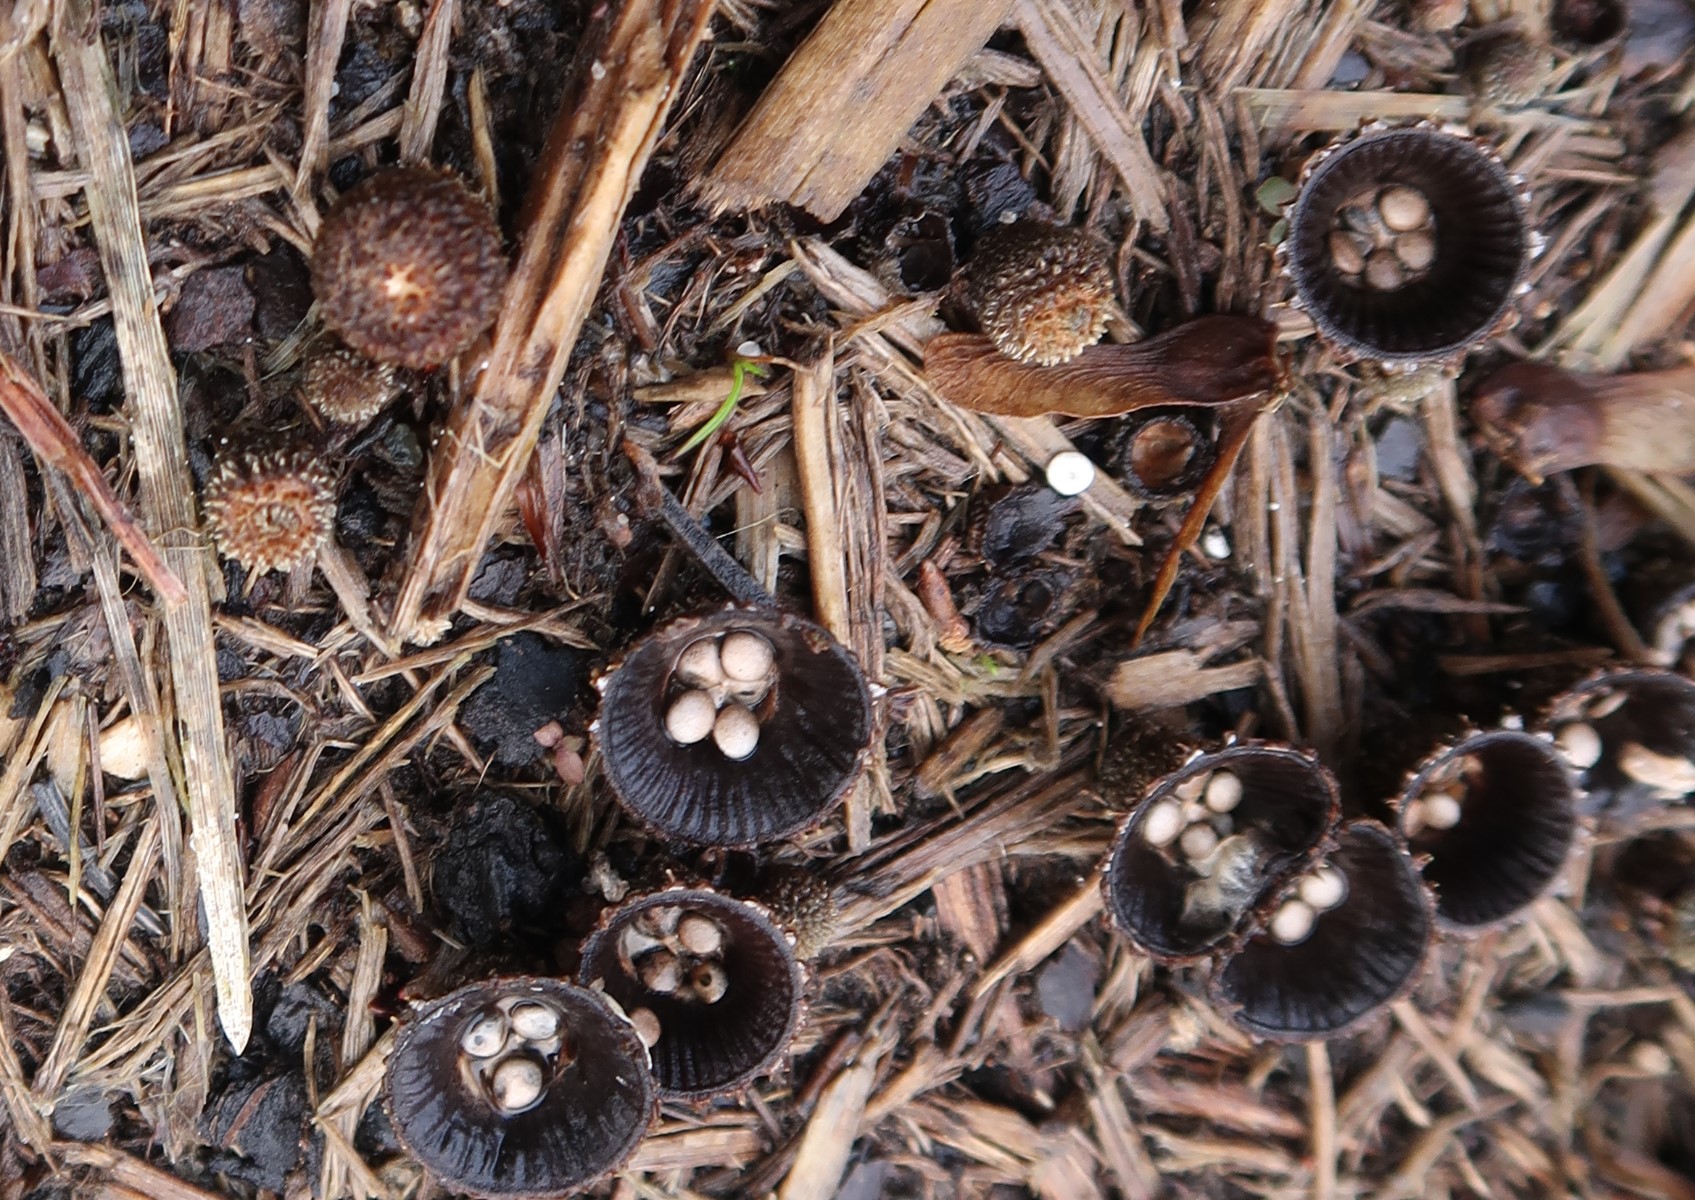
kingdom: Fungi
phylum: Basidiomycota
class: Agaricomycetes
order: Agaricales
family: Agaricaceae
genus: Cyathus
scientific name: Cyathus striatus
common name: stribet redesvamp
